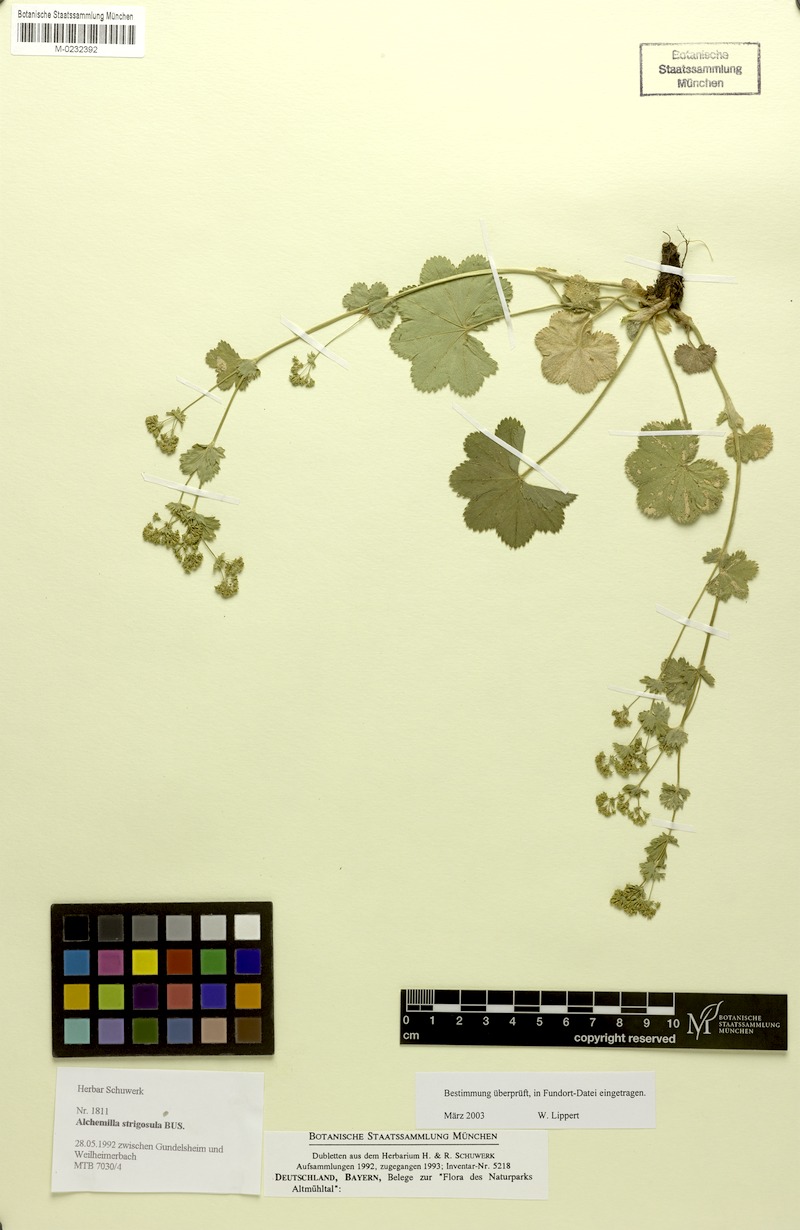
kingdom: Plantae
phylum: Tracheophyta
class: Magnoliopsida
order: Rosales
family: Rosaceae
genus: Alchemilla
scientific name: Alchemilla strigosula
